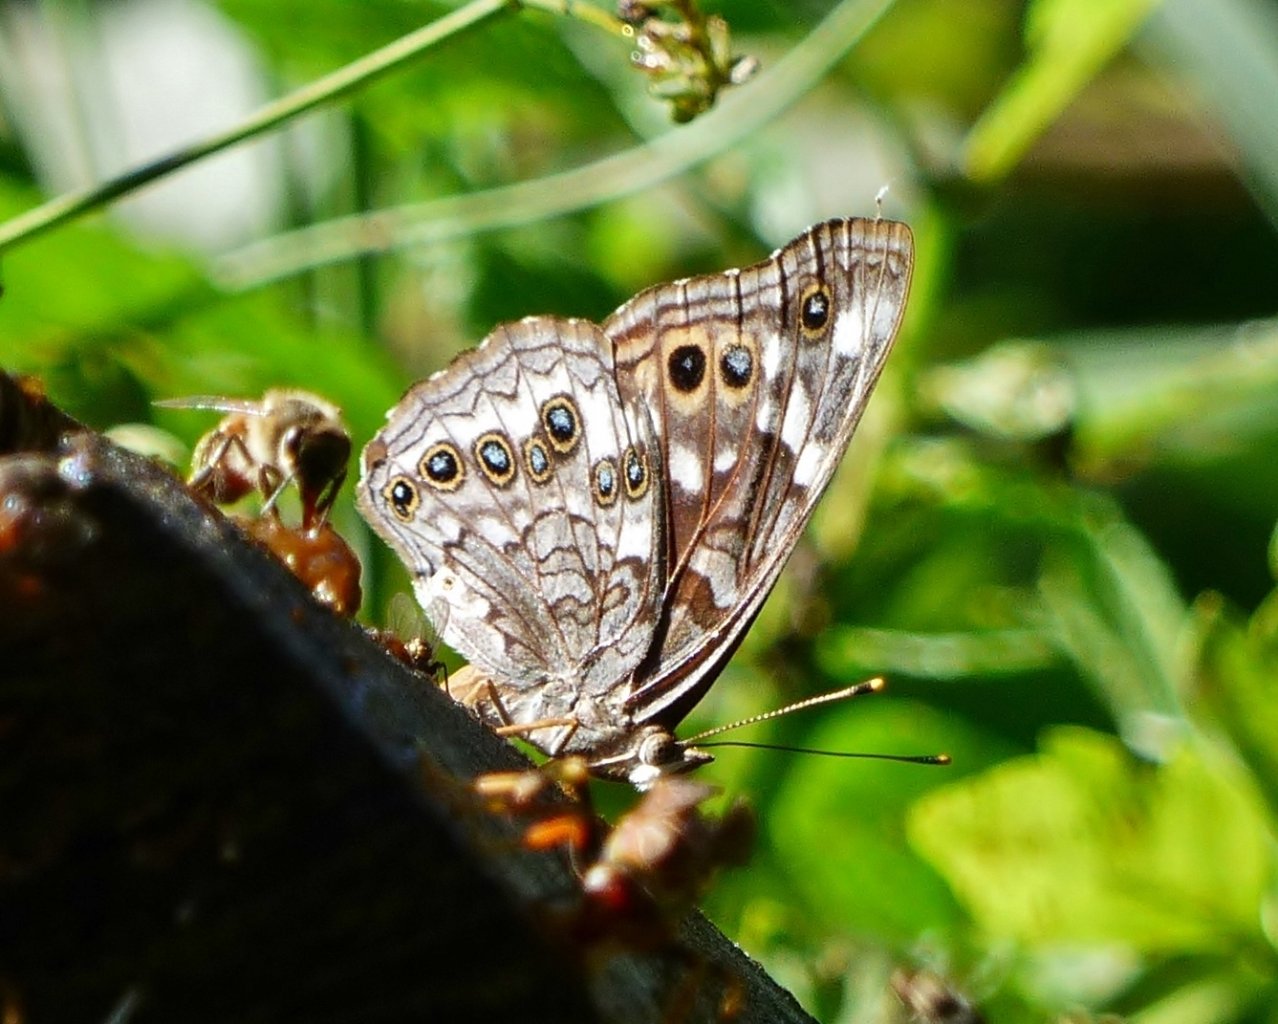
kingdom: Animalia
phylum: Arthropoda
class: Insecta
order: Lepidoptera
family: Nymphalidae
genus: Asterocampa
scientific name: Asterocampa leilia
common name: Empress Leilia
